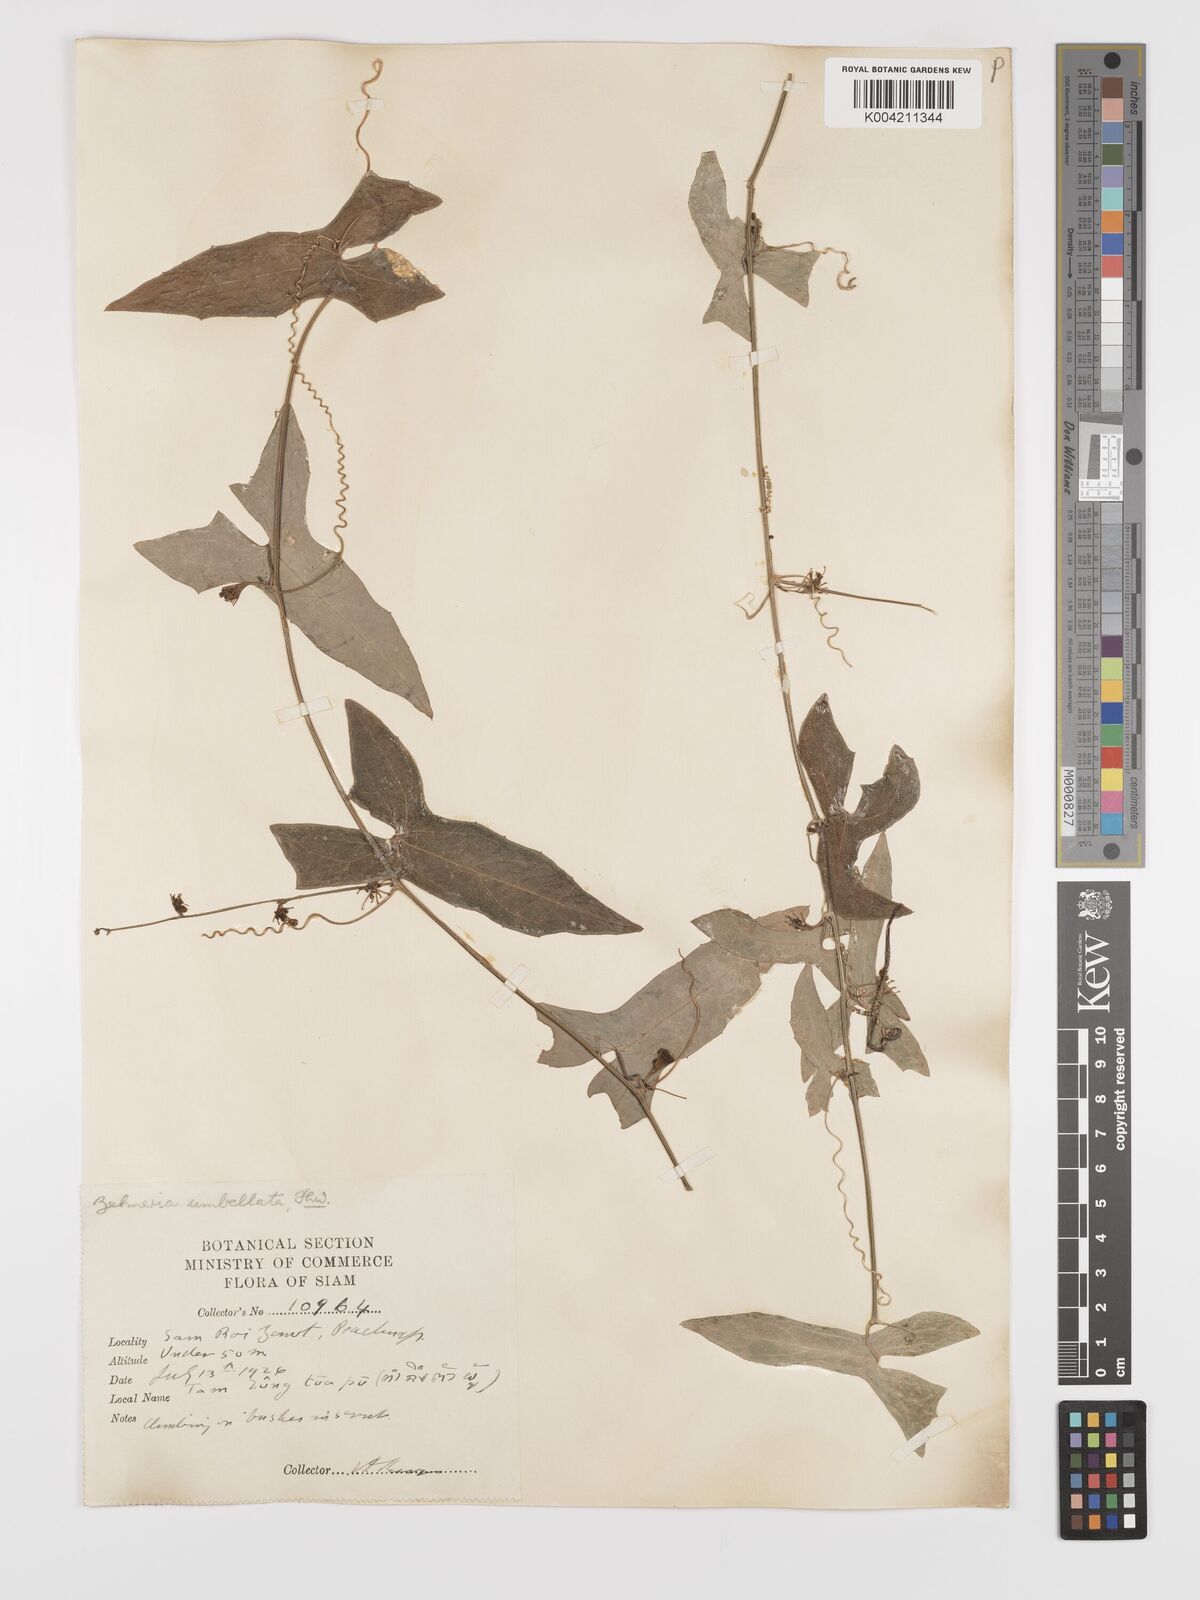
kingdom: Plantae
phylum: Tracheophyta
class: Magnoliopsida
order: Cucurbitales
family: Cucurbitaceae
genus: Solena
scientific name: Solena amplexicaulis
